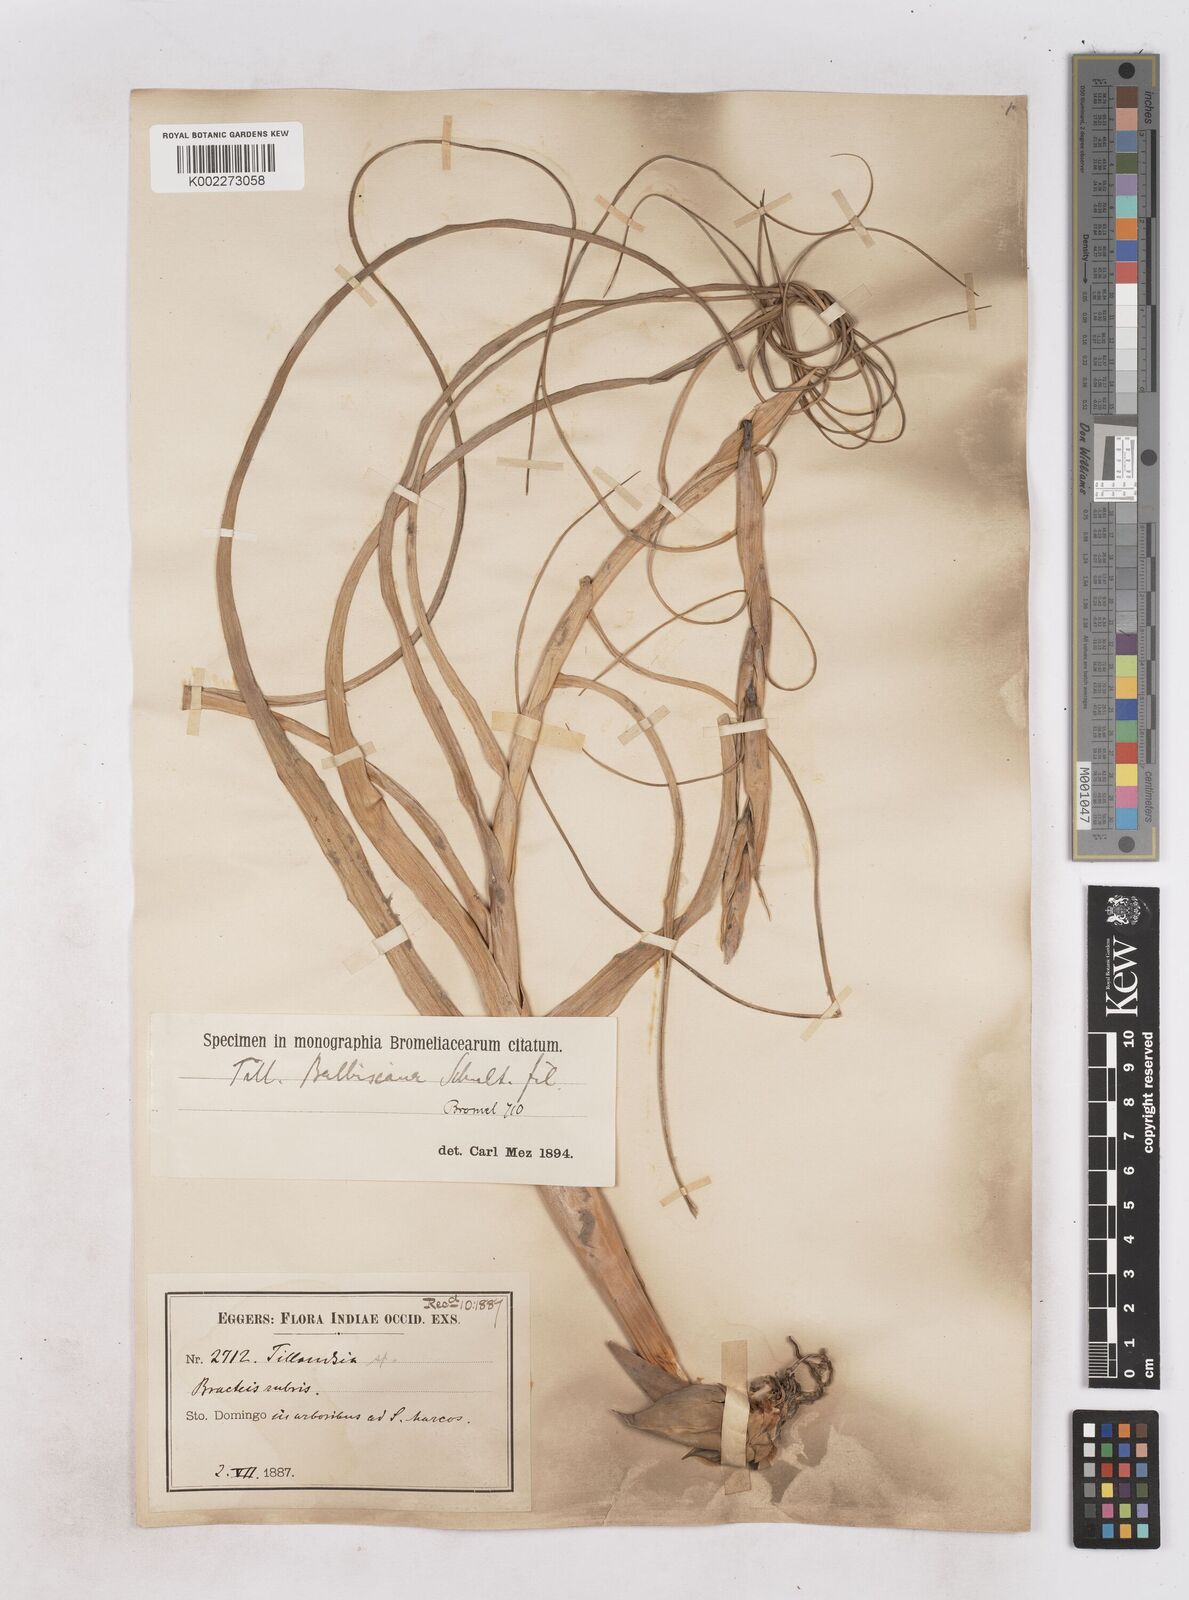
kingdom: Plantae
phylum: Tracheophyta
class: Liliopsida
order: Poales
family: Bromeliaceae
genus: Tillandsia
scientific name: Tillandsia balbisiana
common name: Northern needleleaf
